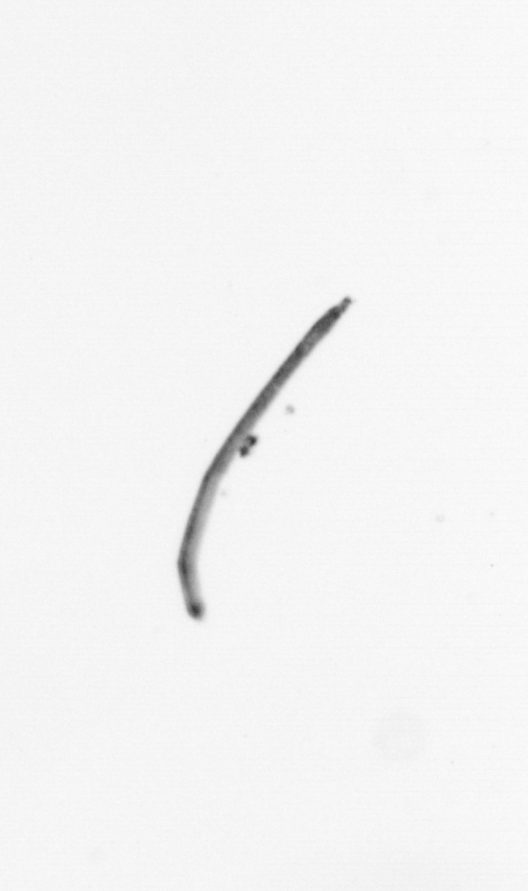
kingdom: Chromista
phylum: Ochrophyta
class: Bacillariophyceae
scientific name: Bacillariophyceae
